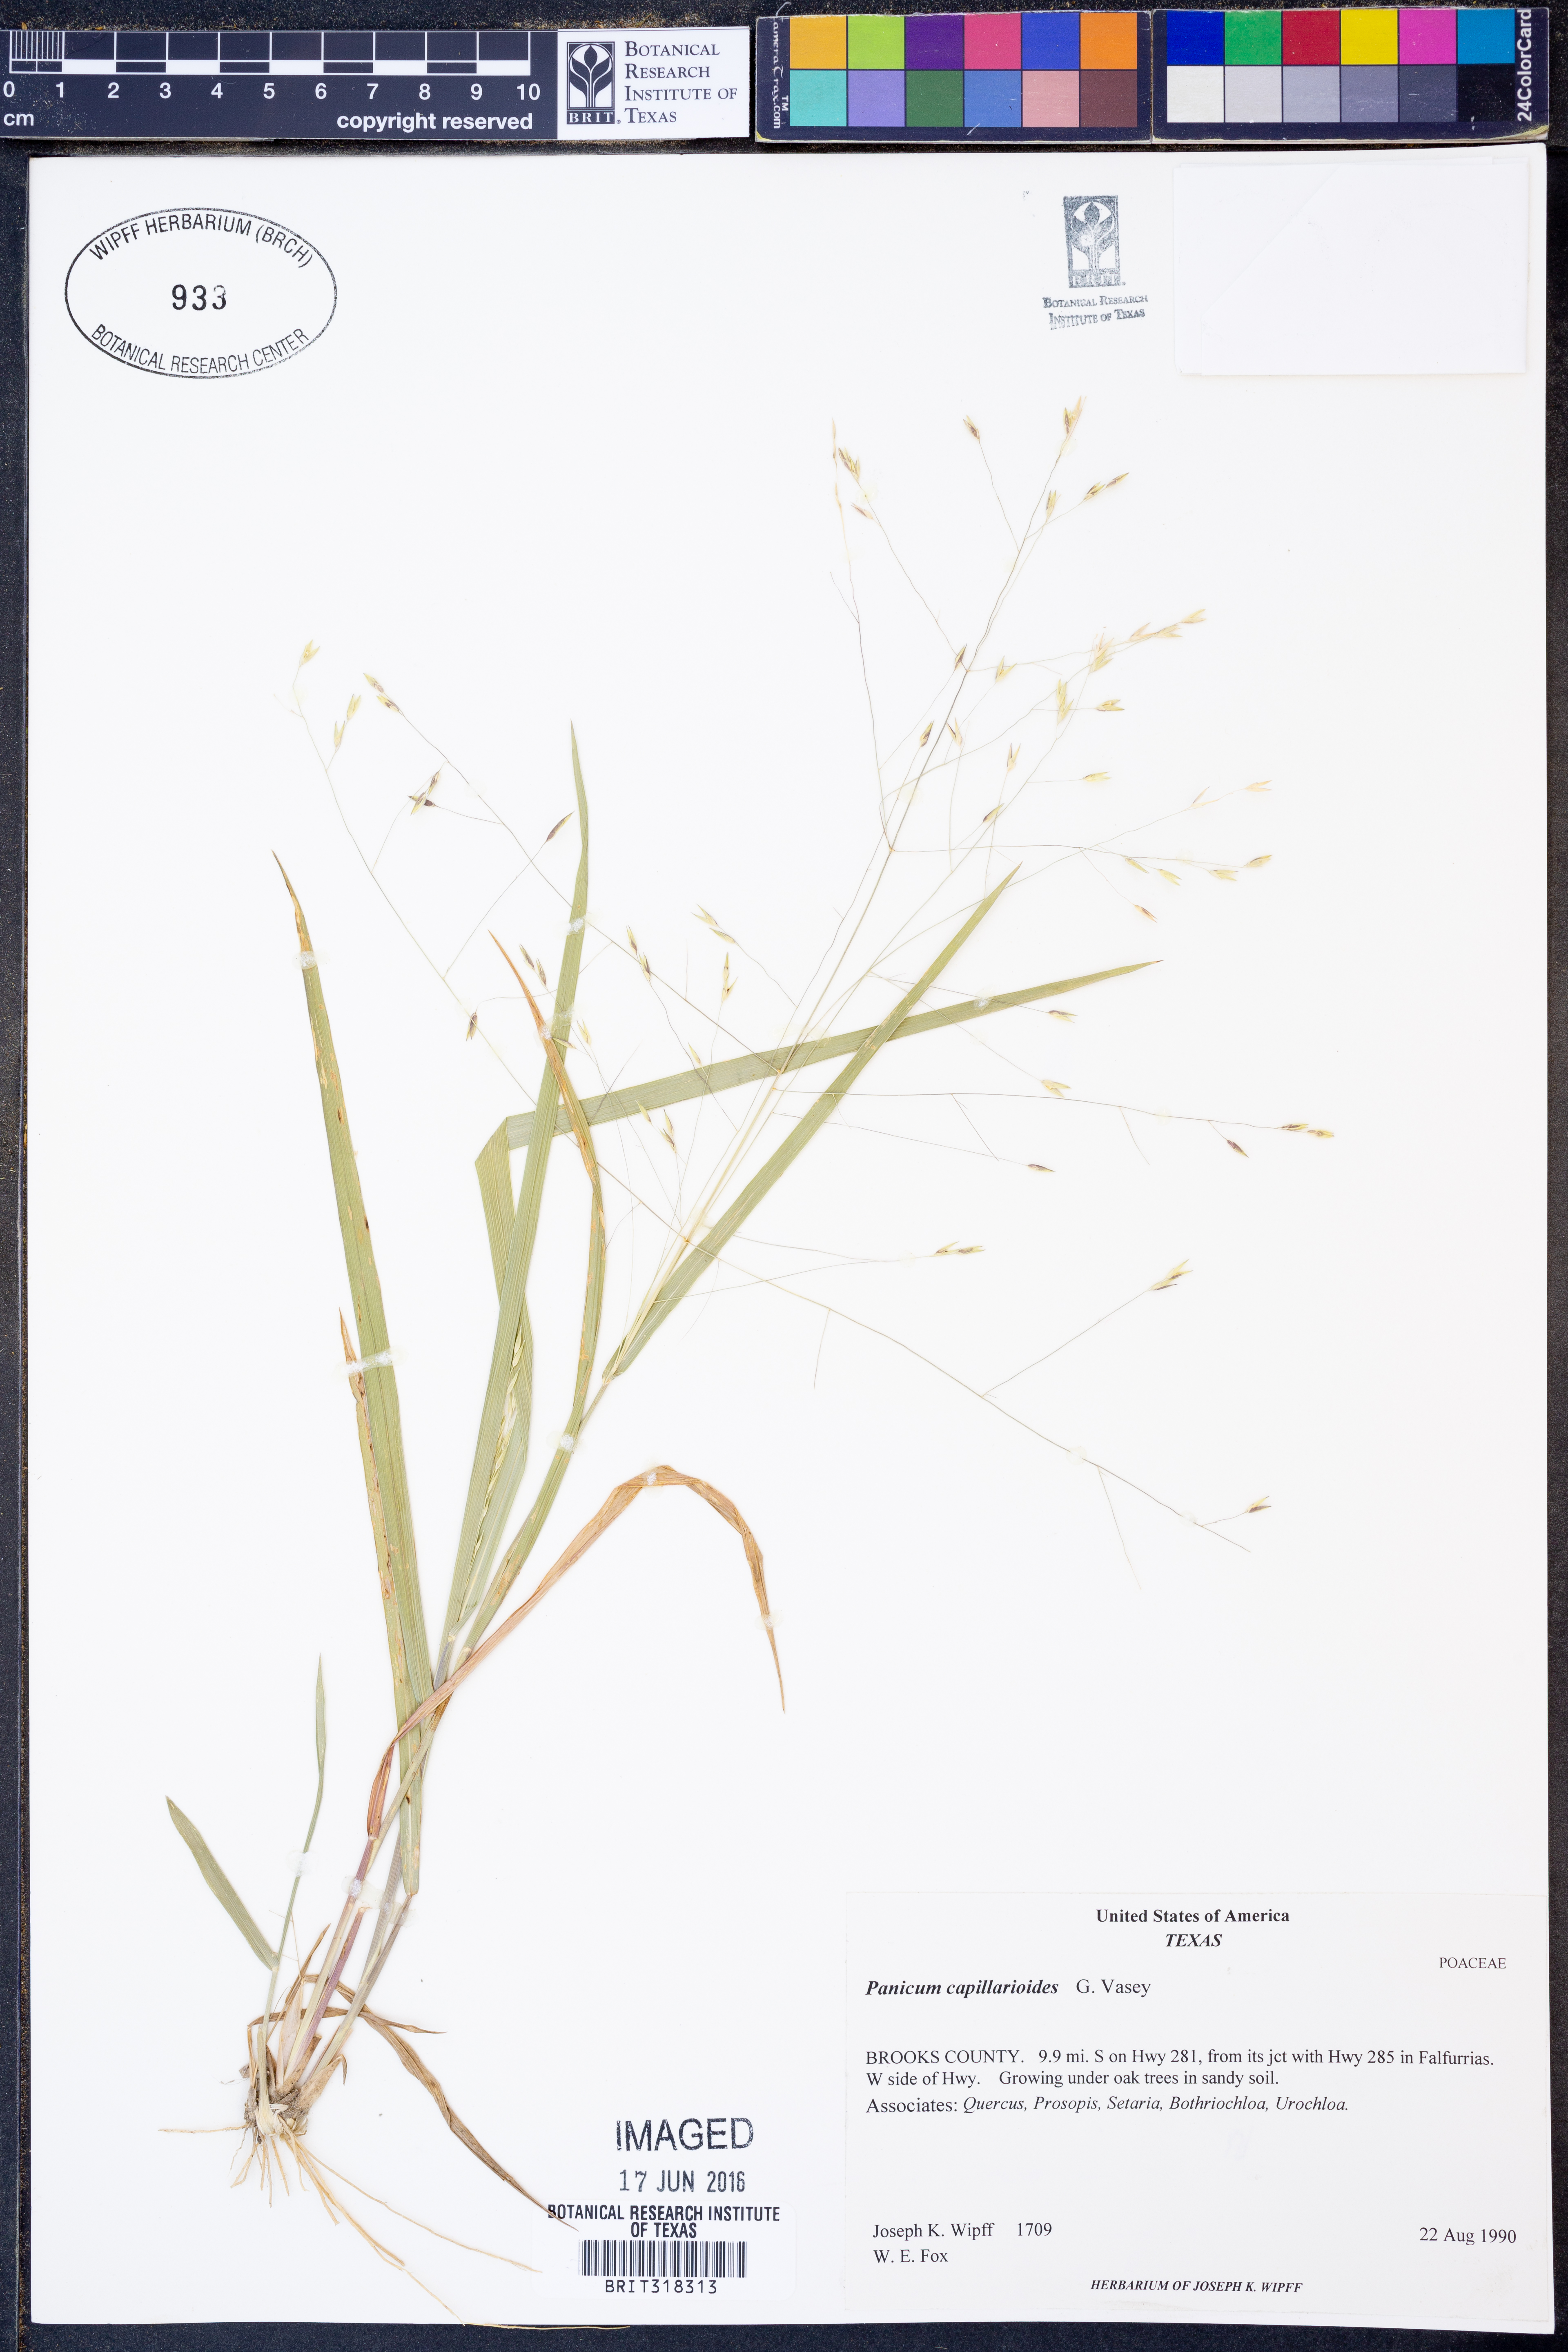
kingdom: Plantae
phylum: Tracheophyta
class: Liliopsida
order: Poales
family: Poaceae
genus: Panicum
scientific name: Panicum capillarioides
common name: Long-beak witchgrass
